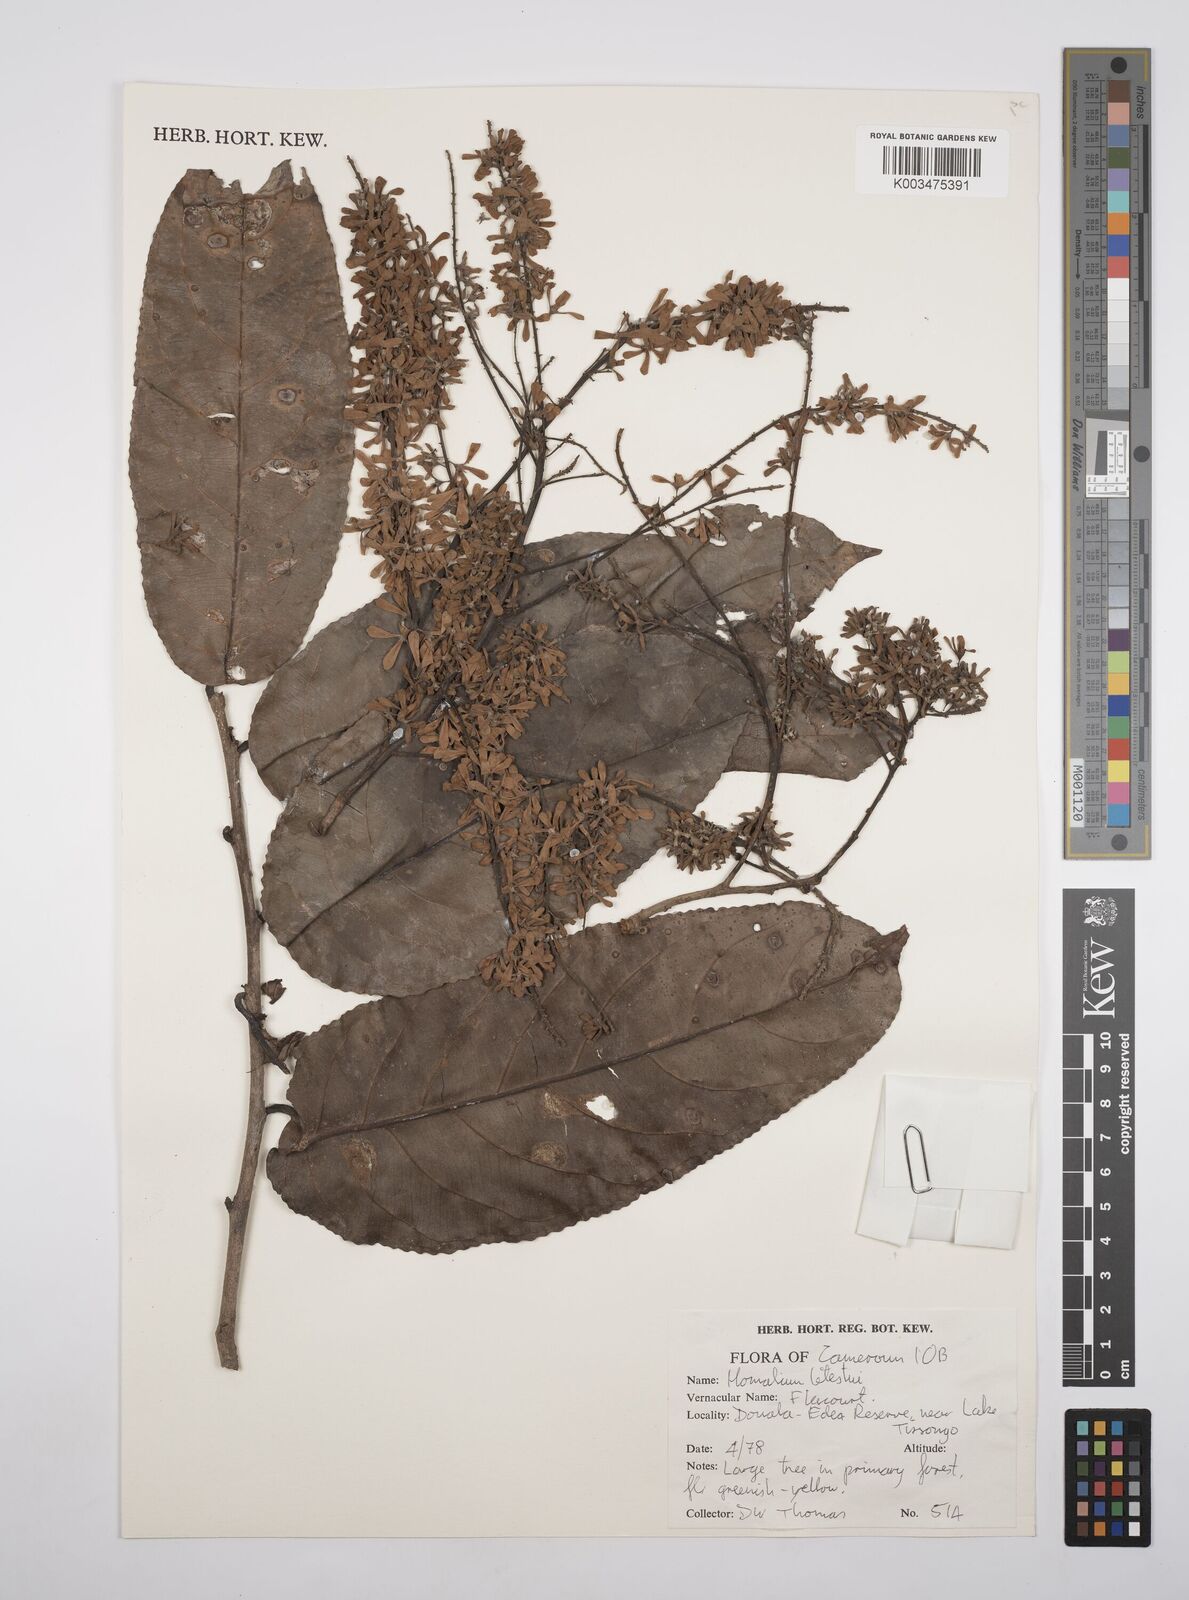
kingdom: Plantae
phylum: Tracheophyta
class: Magnoliopsida
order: Malpighiales
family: Salicaceae
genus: Homalium
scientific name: Homalium letestui
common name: African homalium
